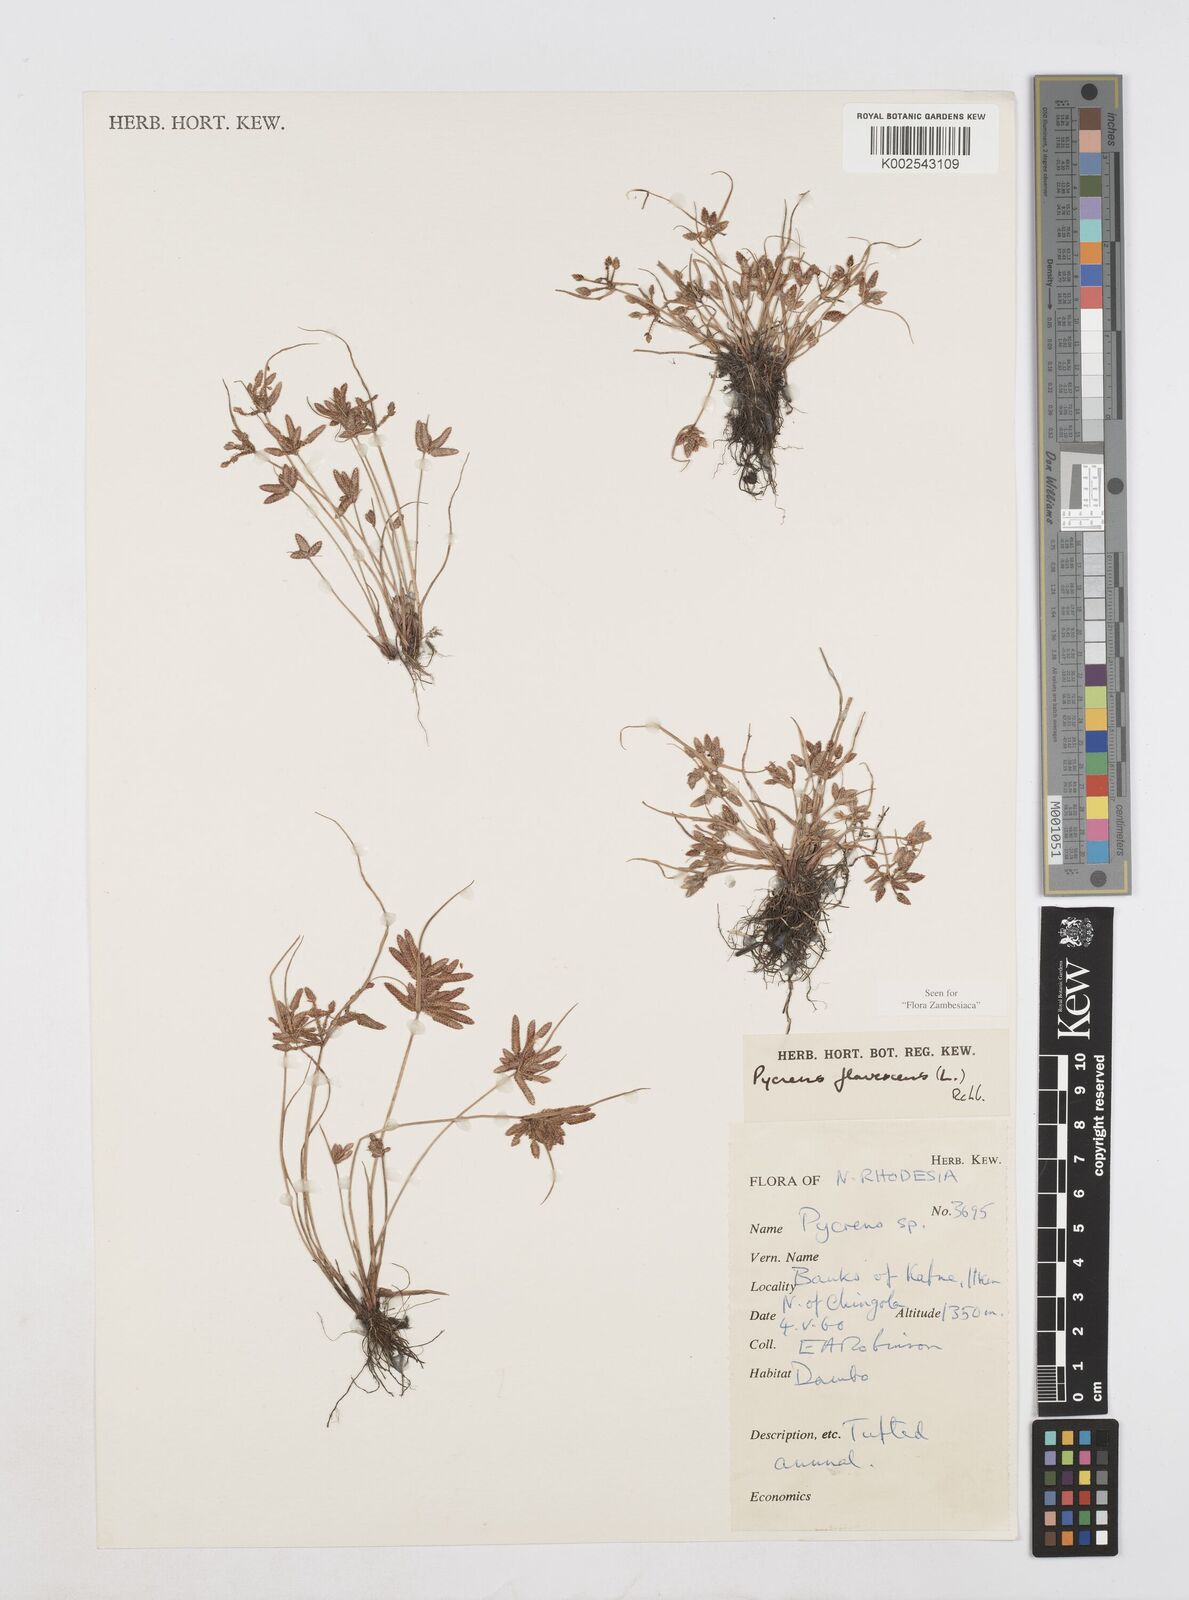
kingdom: Plantae
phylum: Tracheophyta
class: Liliopsida
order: Poales
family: Cyperaceae
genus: Cyperus
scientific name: Cyperus flavescens
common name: Yellow galingale
